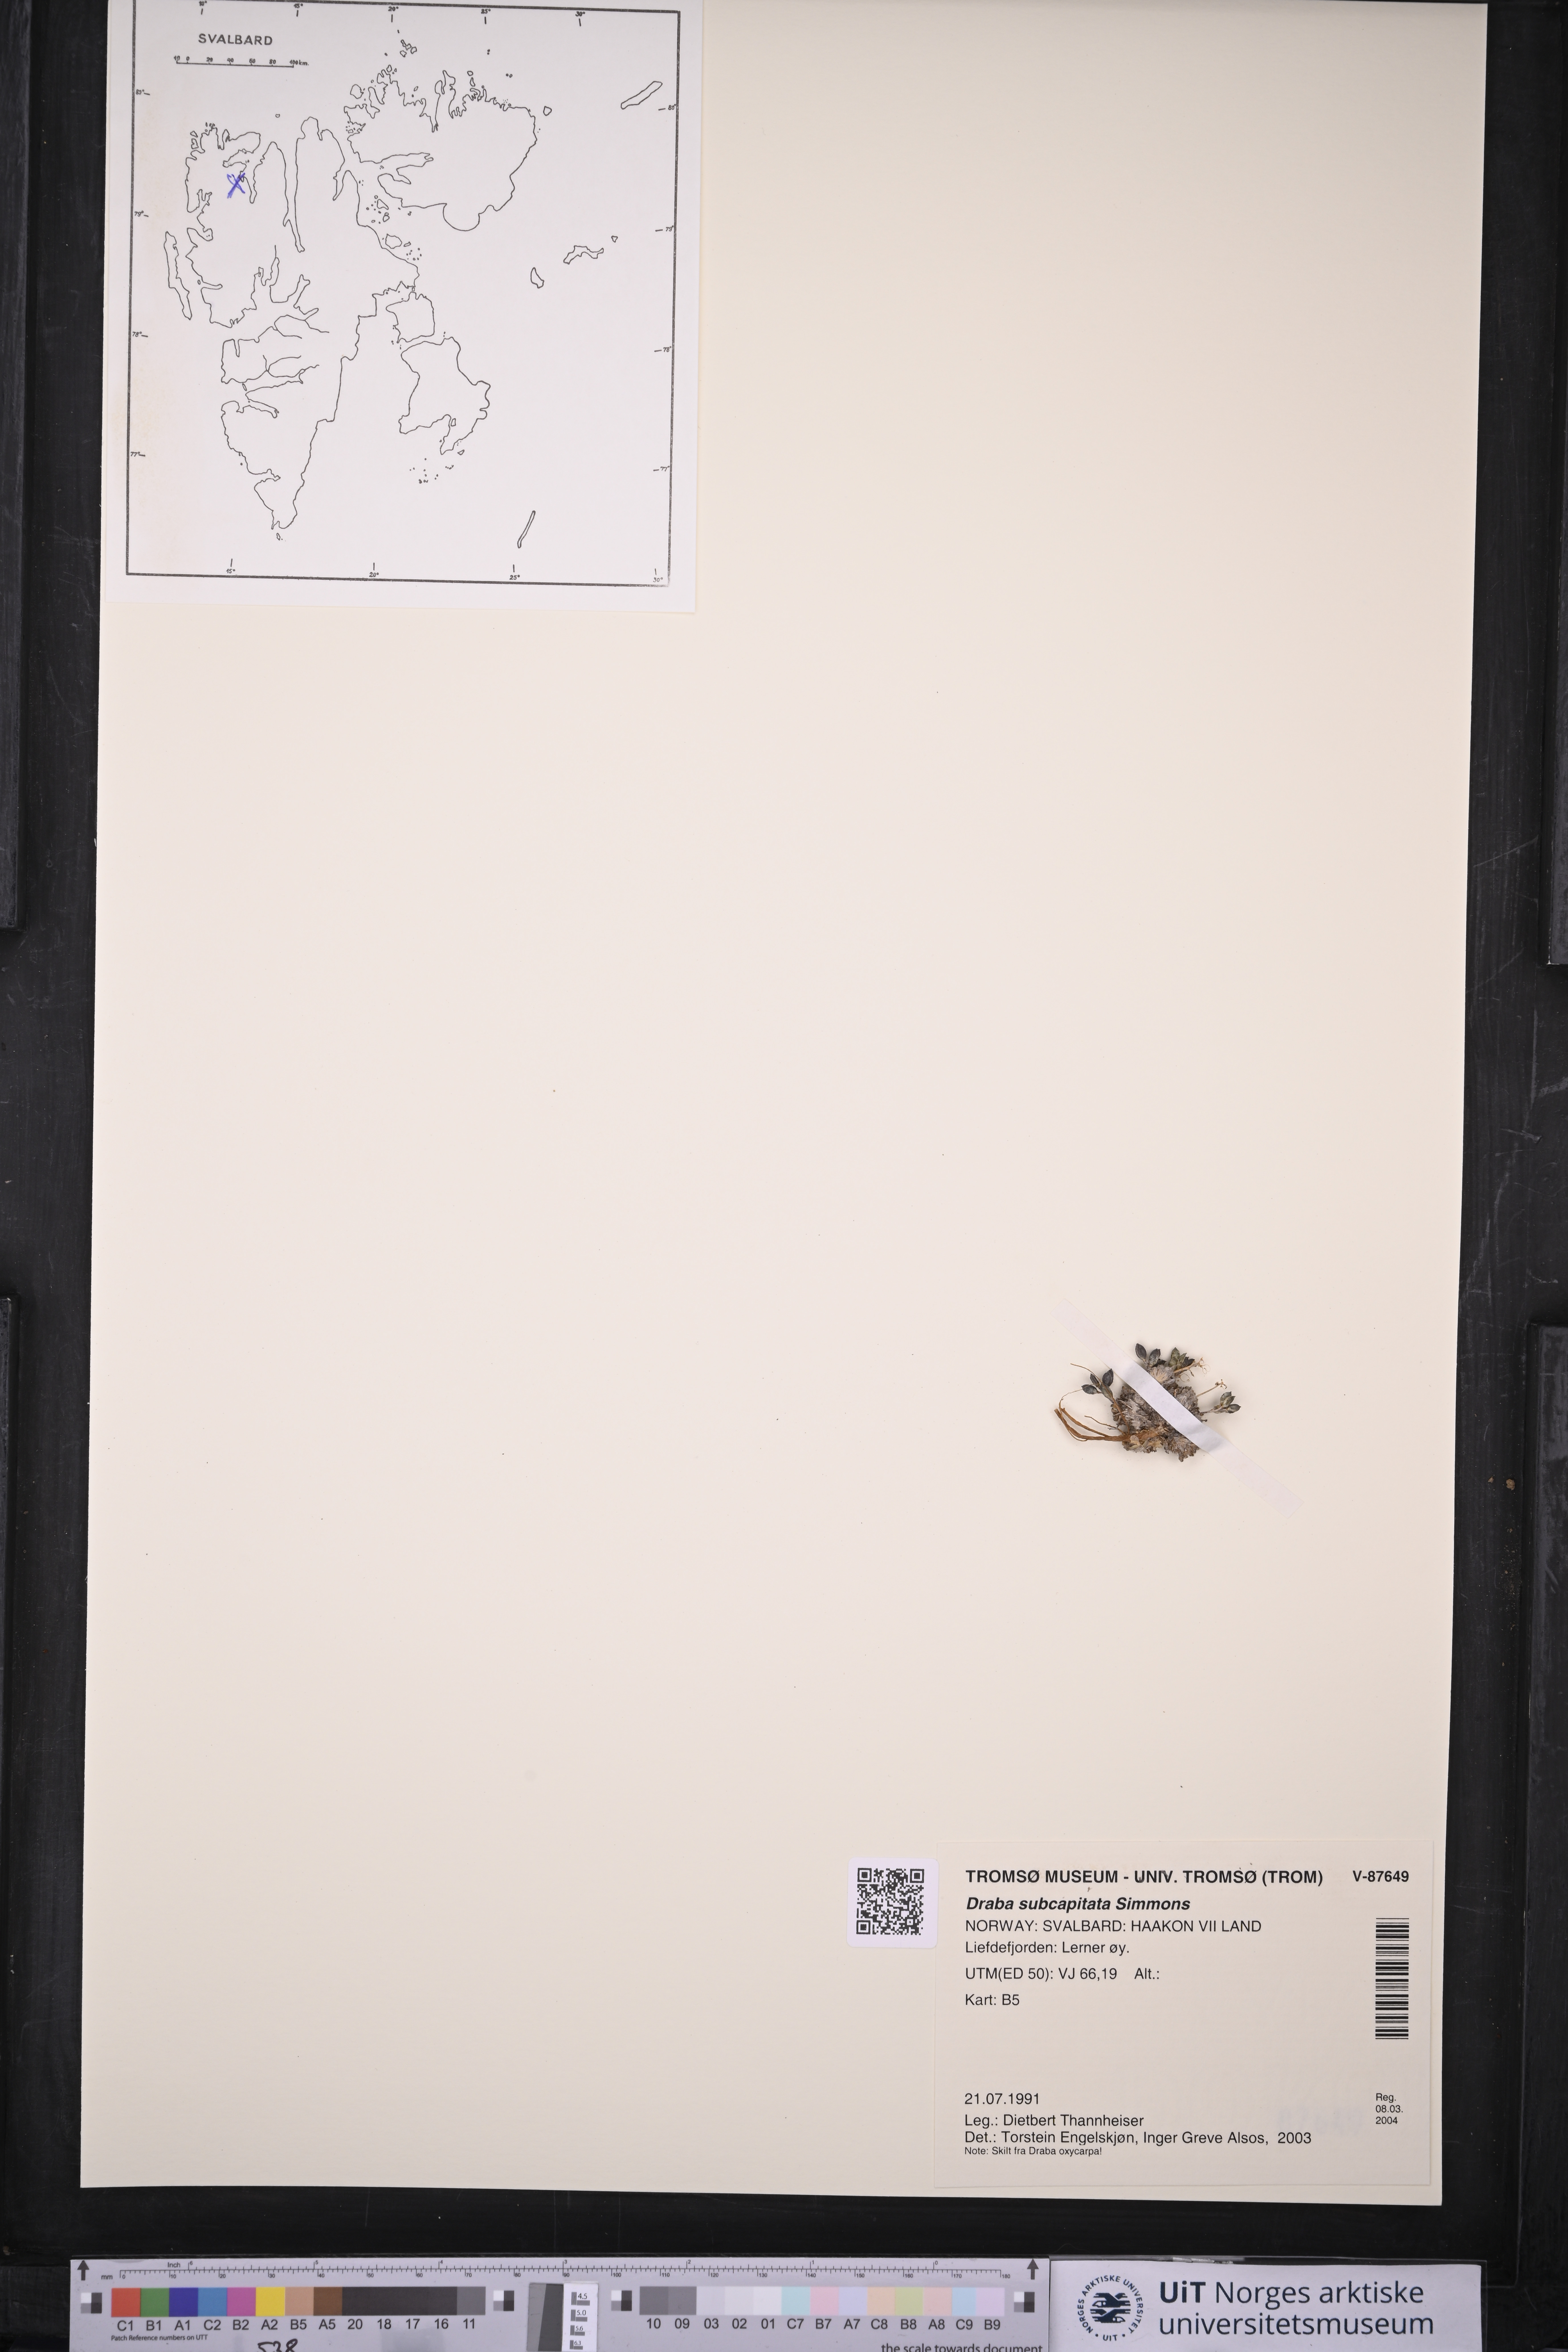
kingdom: Plantae
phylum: Tracheophyta
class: Magnoliopsida
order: Brassicales
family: Brassicaceae
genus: Draba
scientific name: Draba subcapitata
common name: Ellesmere island draba
